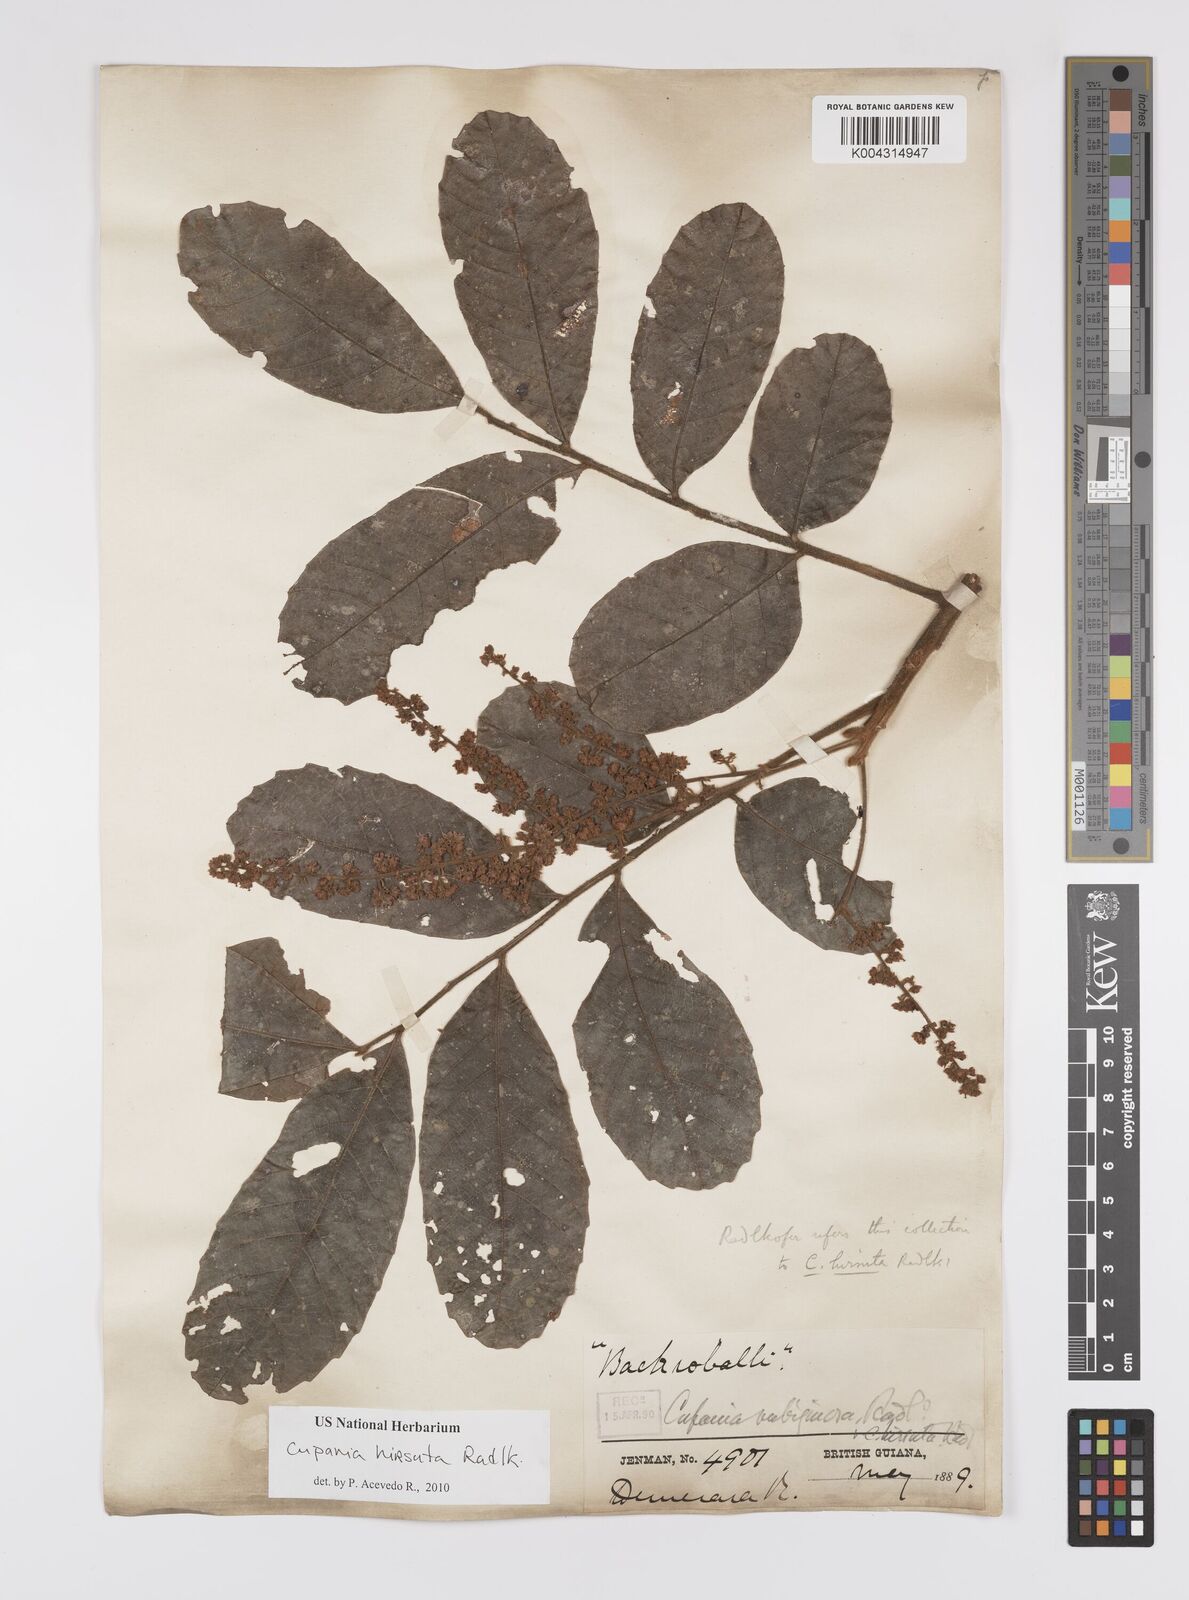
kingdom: Plantae
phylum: Tracheophyta
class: Magnoliopsida
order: Sapindales
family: Sapindaceae
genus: Cupania
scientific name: Cupania hirsuta
